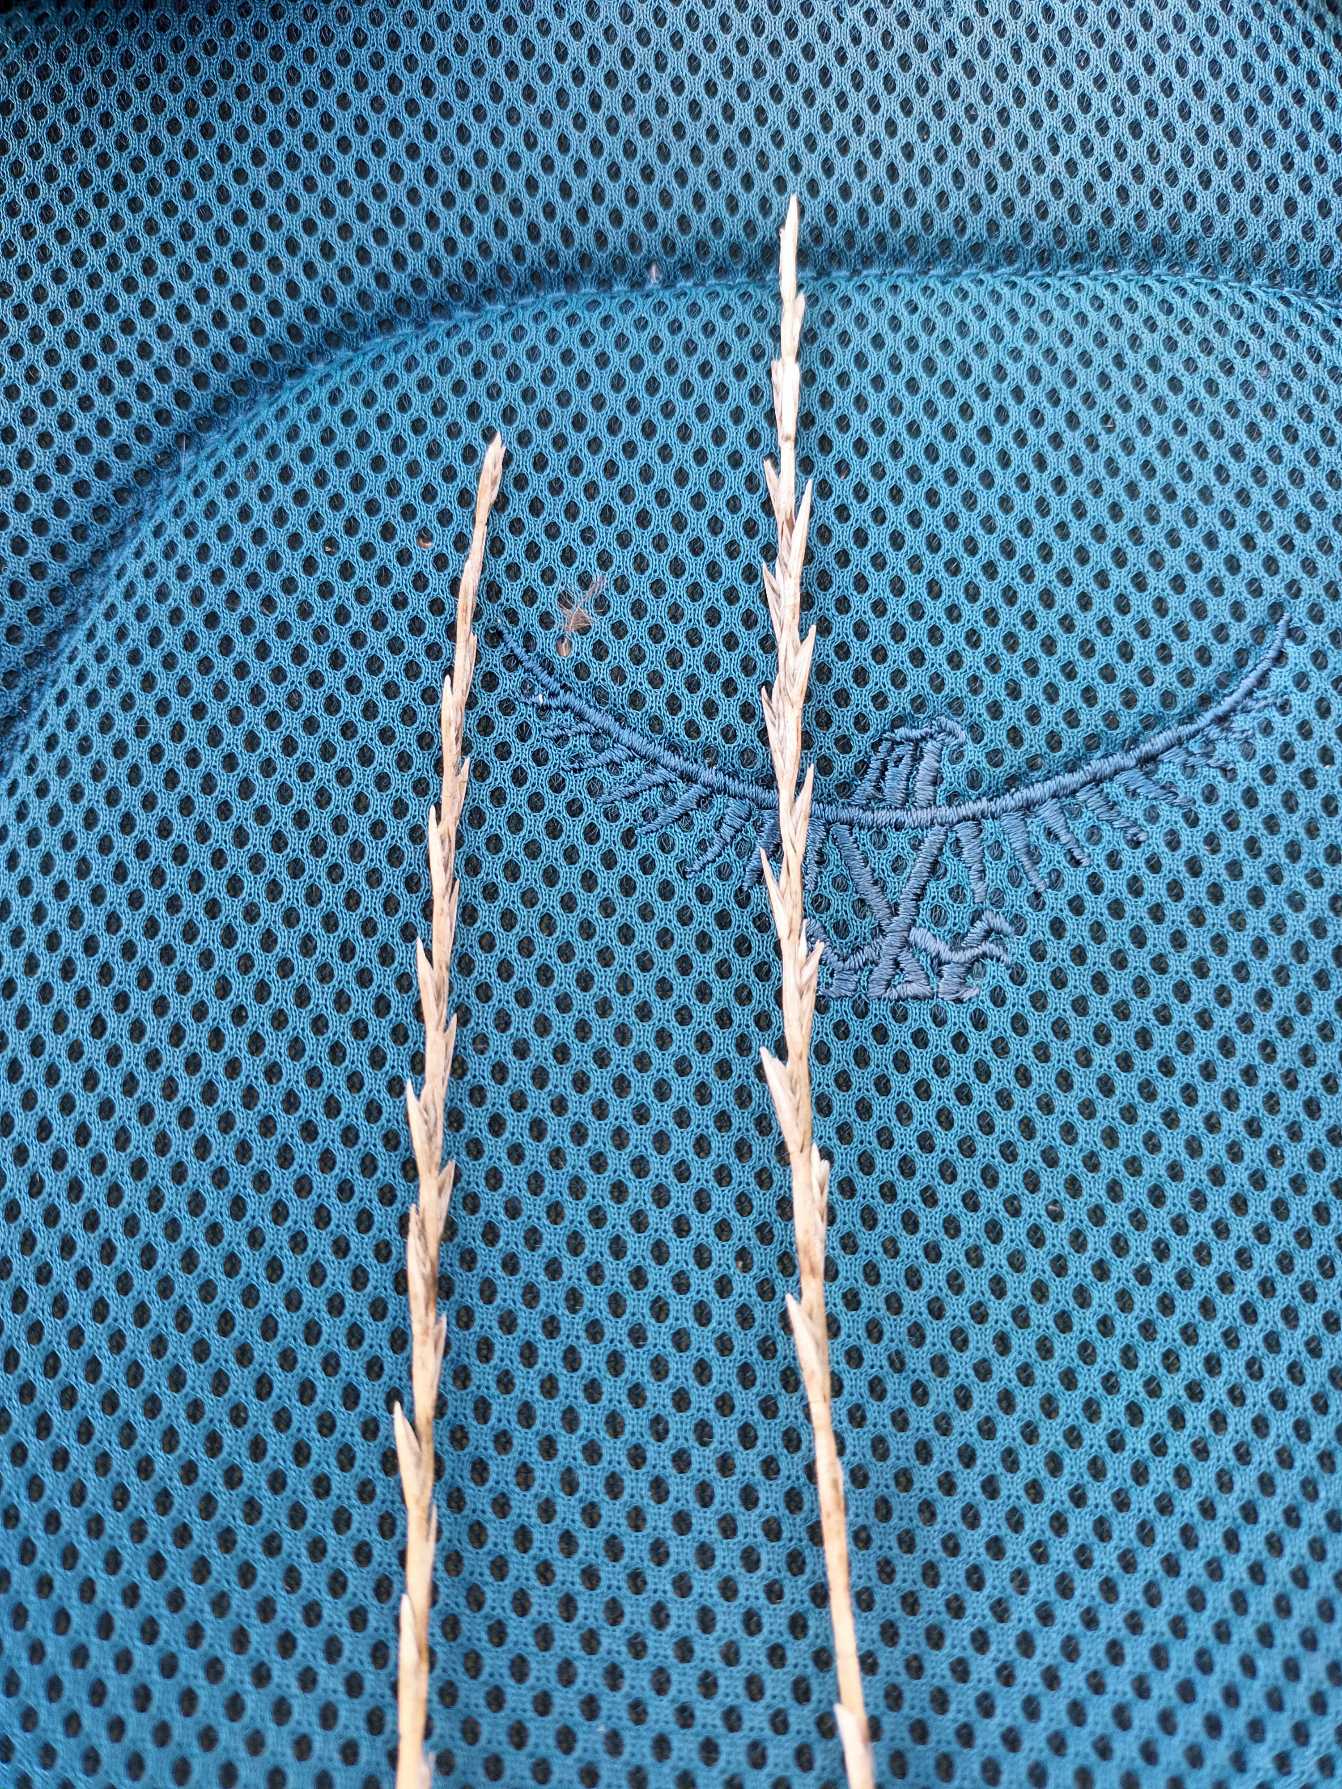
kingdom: Plantae
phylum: Tracheophyta
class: Liliopsida
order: Poales
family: Poaceae
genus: Lolium
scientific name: Lolium perenne
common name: Almindelig rajgræs
